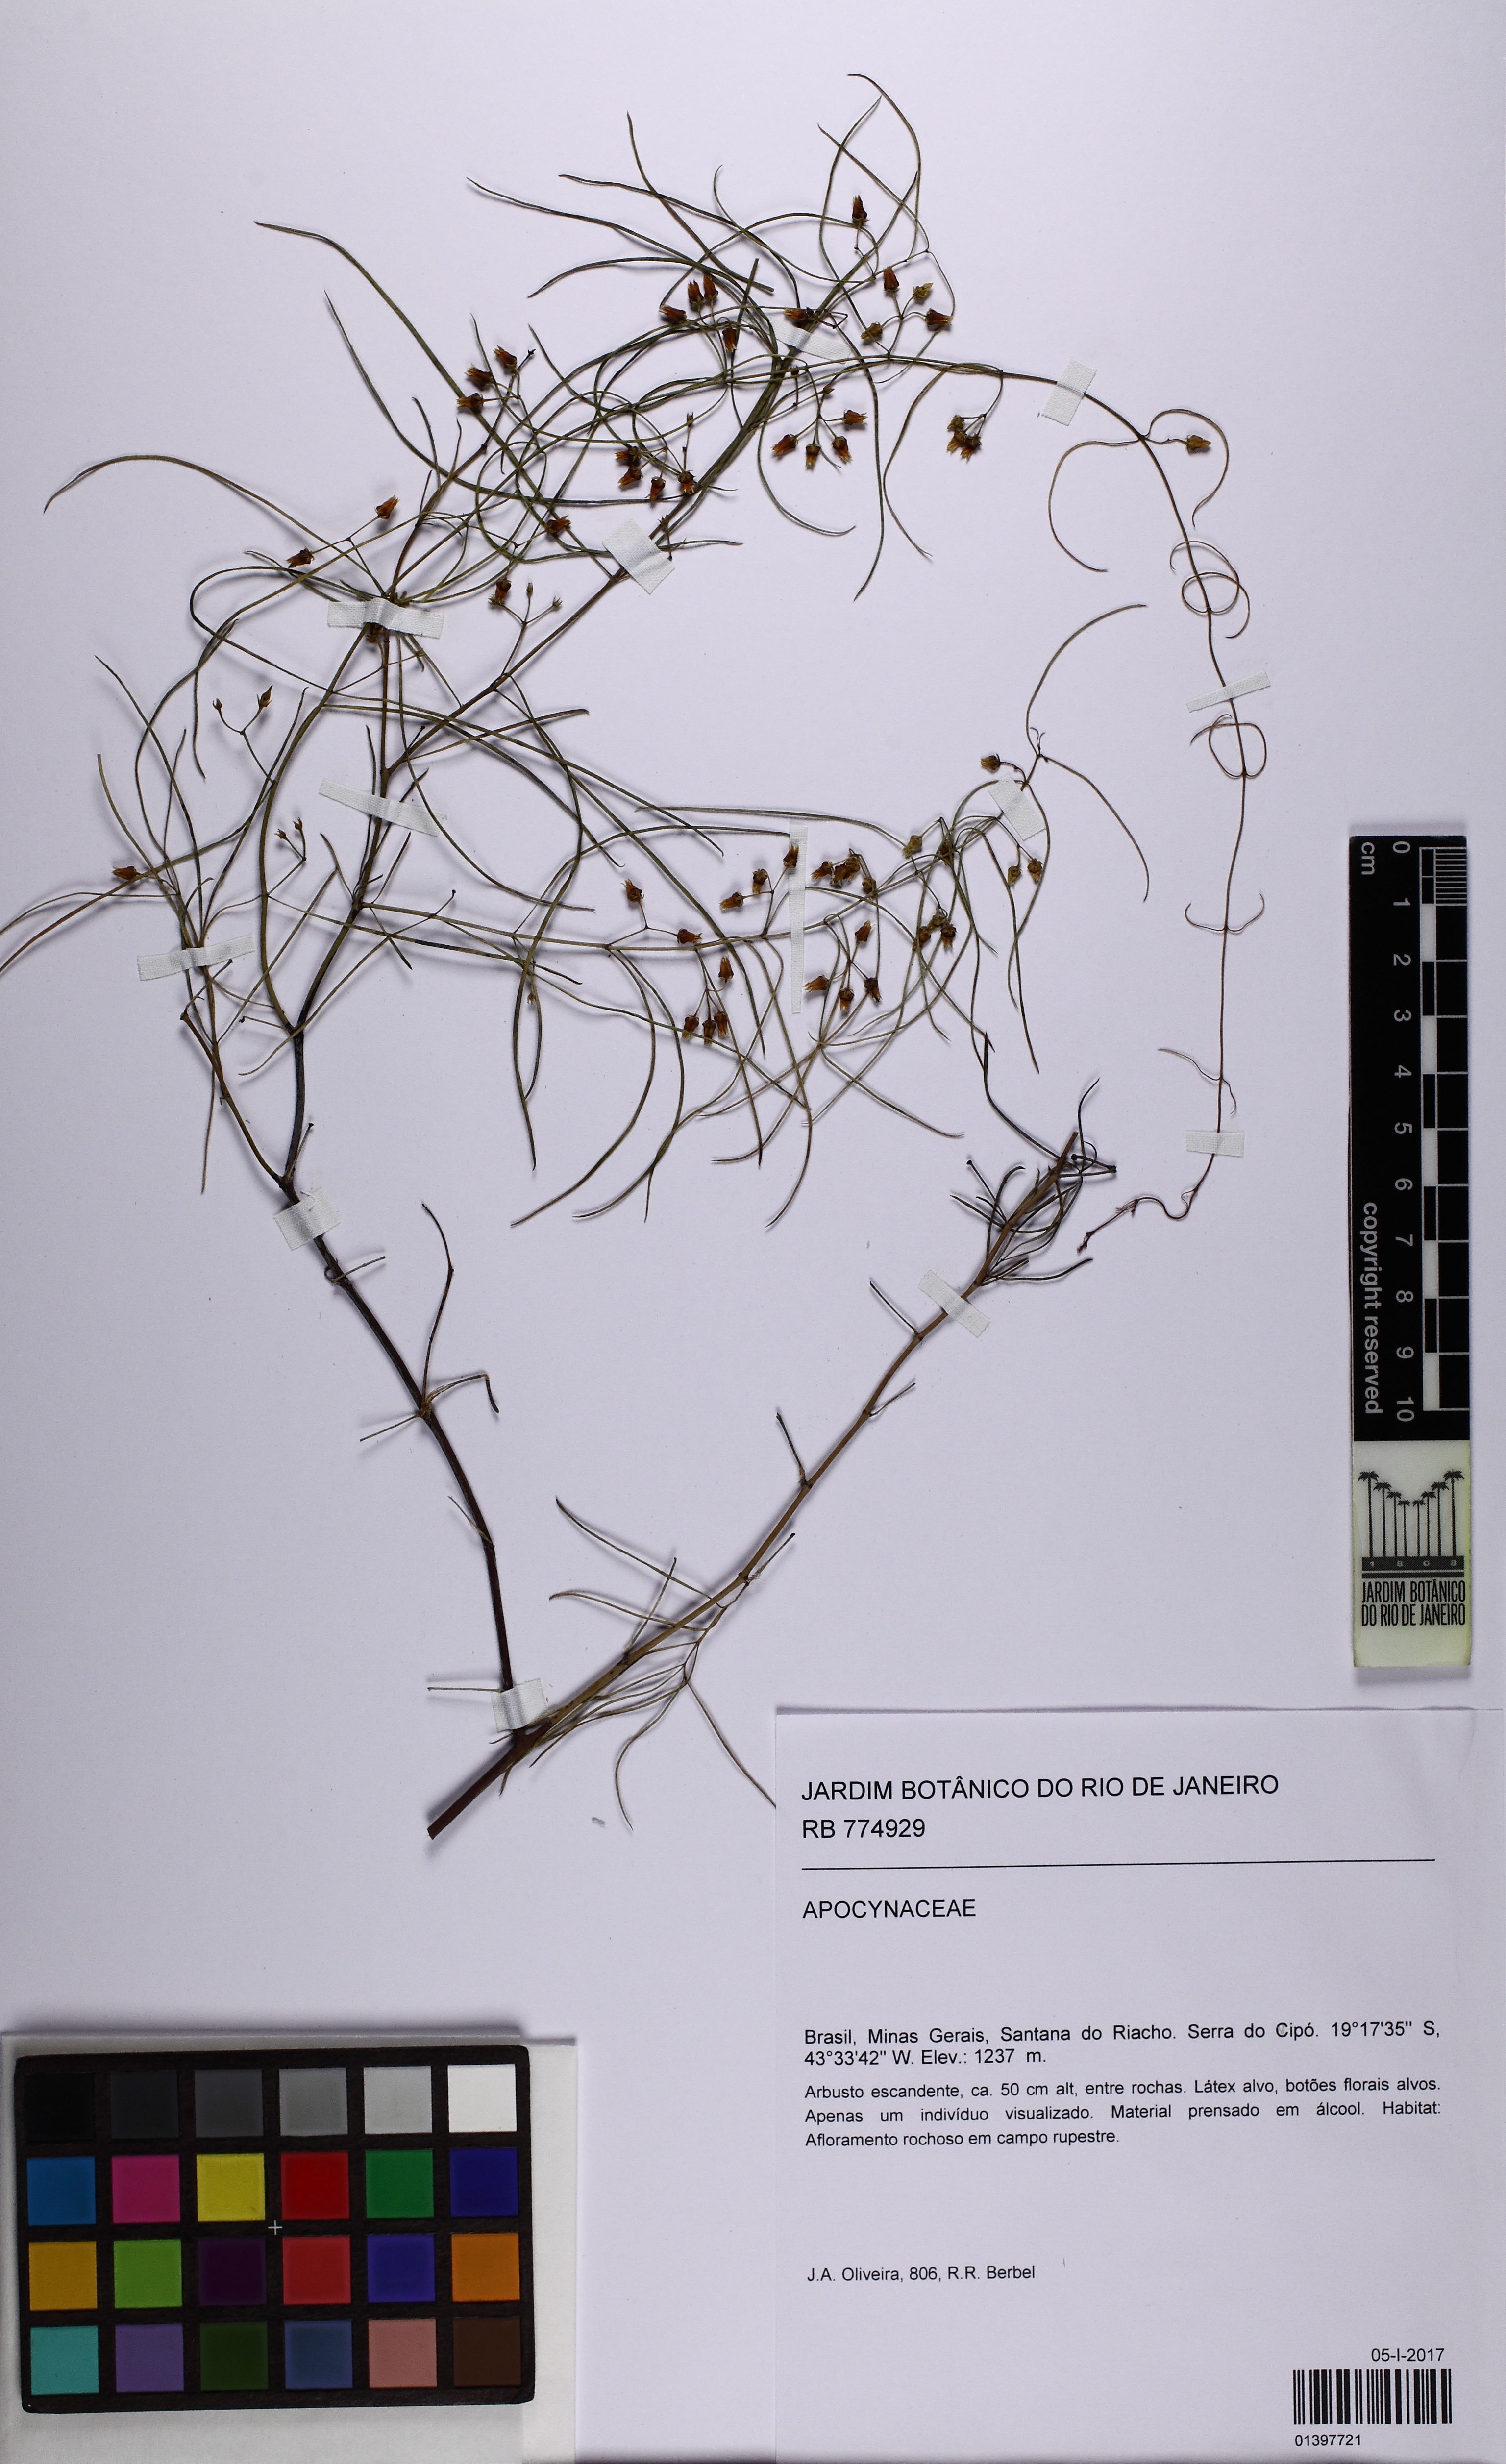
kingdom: Plantae
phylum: Tracheophyta
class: Magnoliopsida
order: Gentianales
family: Apocynaceae
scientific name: Apocynaceae
